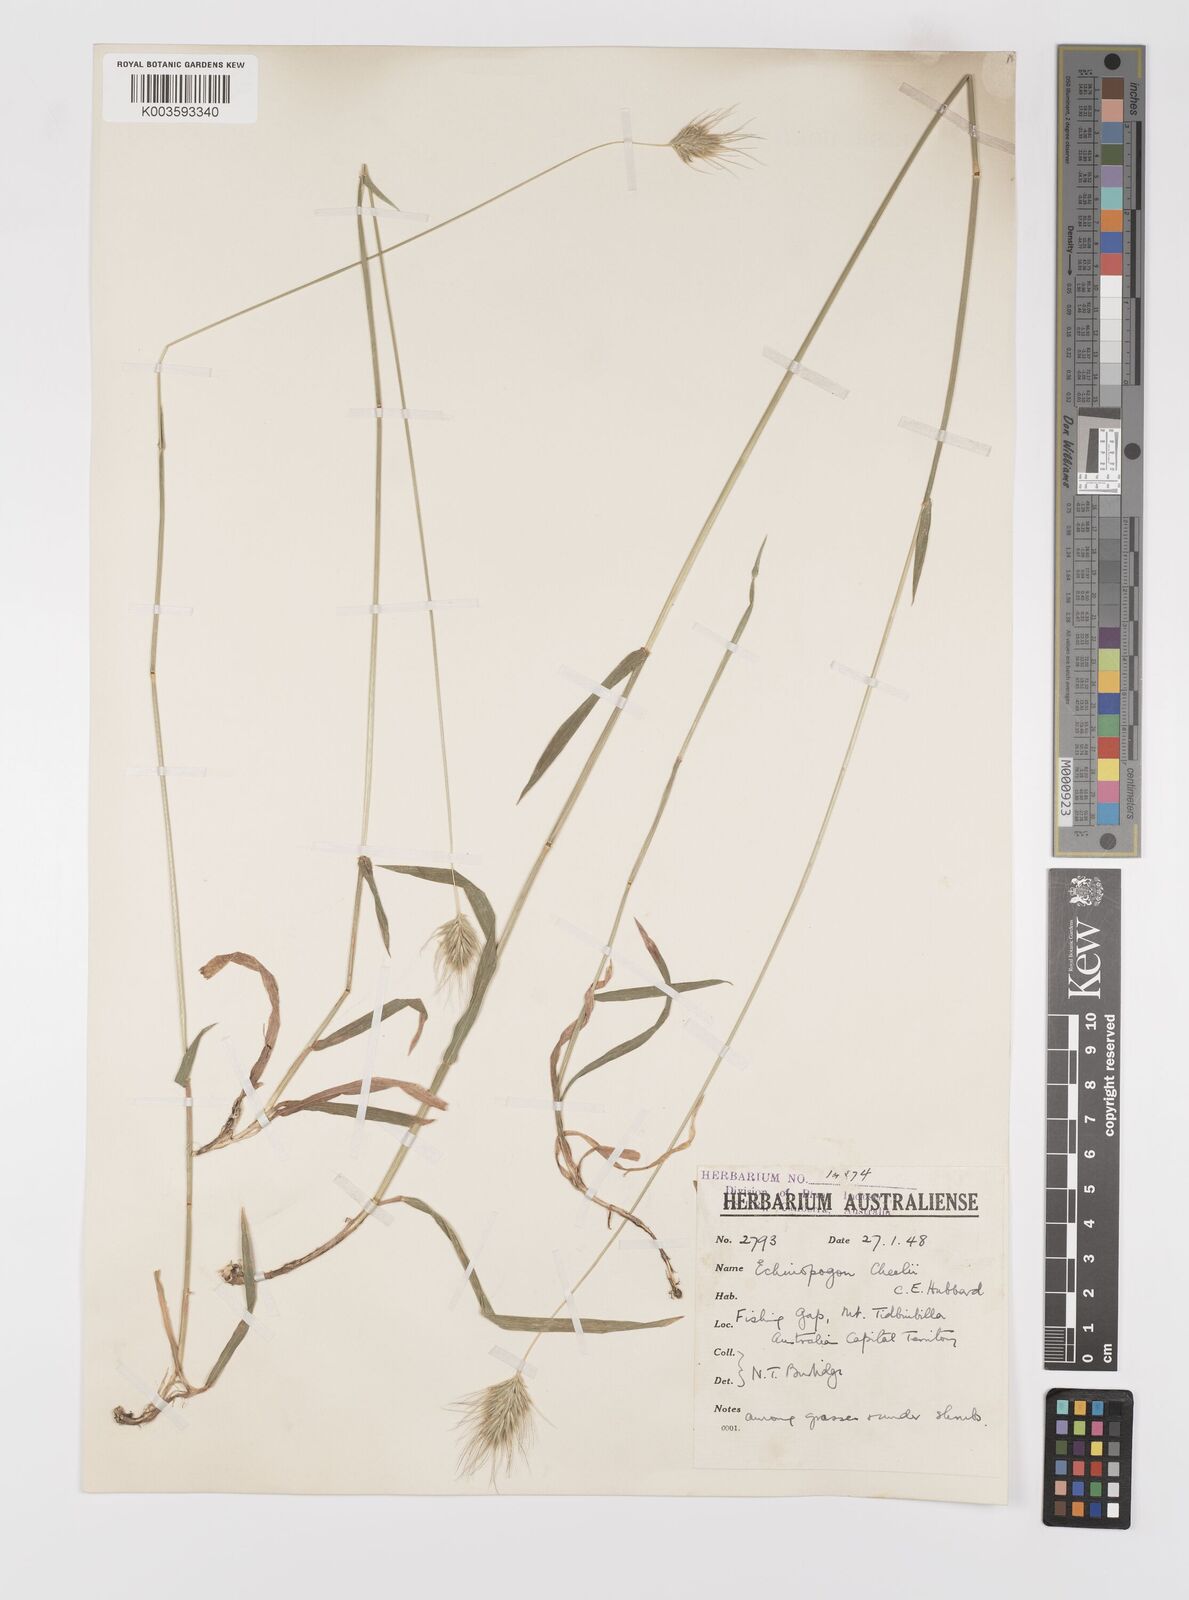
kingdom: Plantae
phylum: Tracheophyta
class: Liliopsida
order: Poales
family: Poaceae
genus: Echinopogon
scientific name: Echinopogon cheelii
